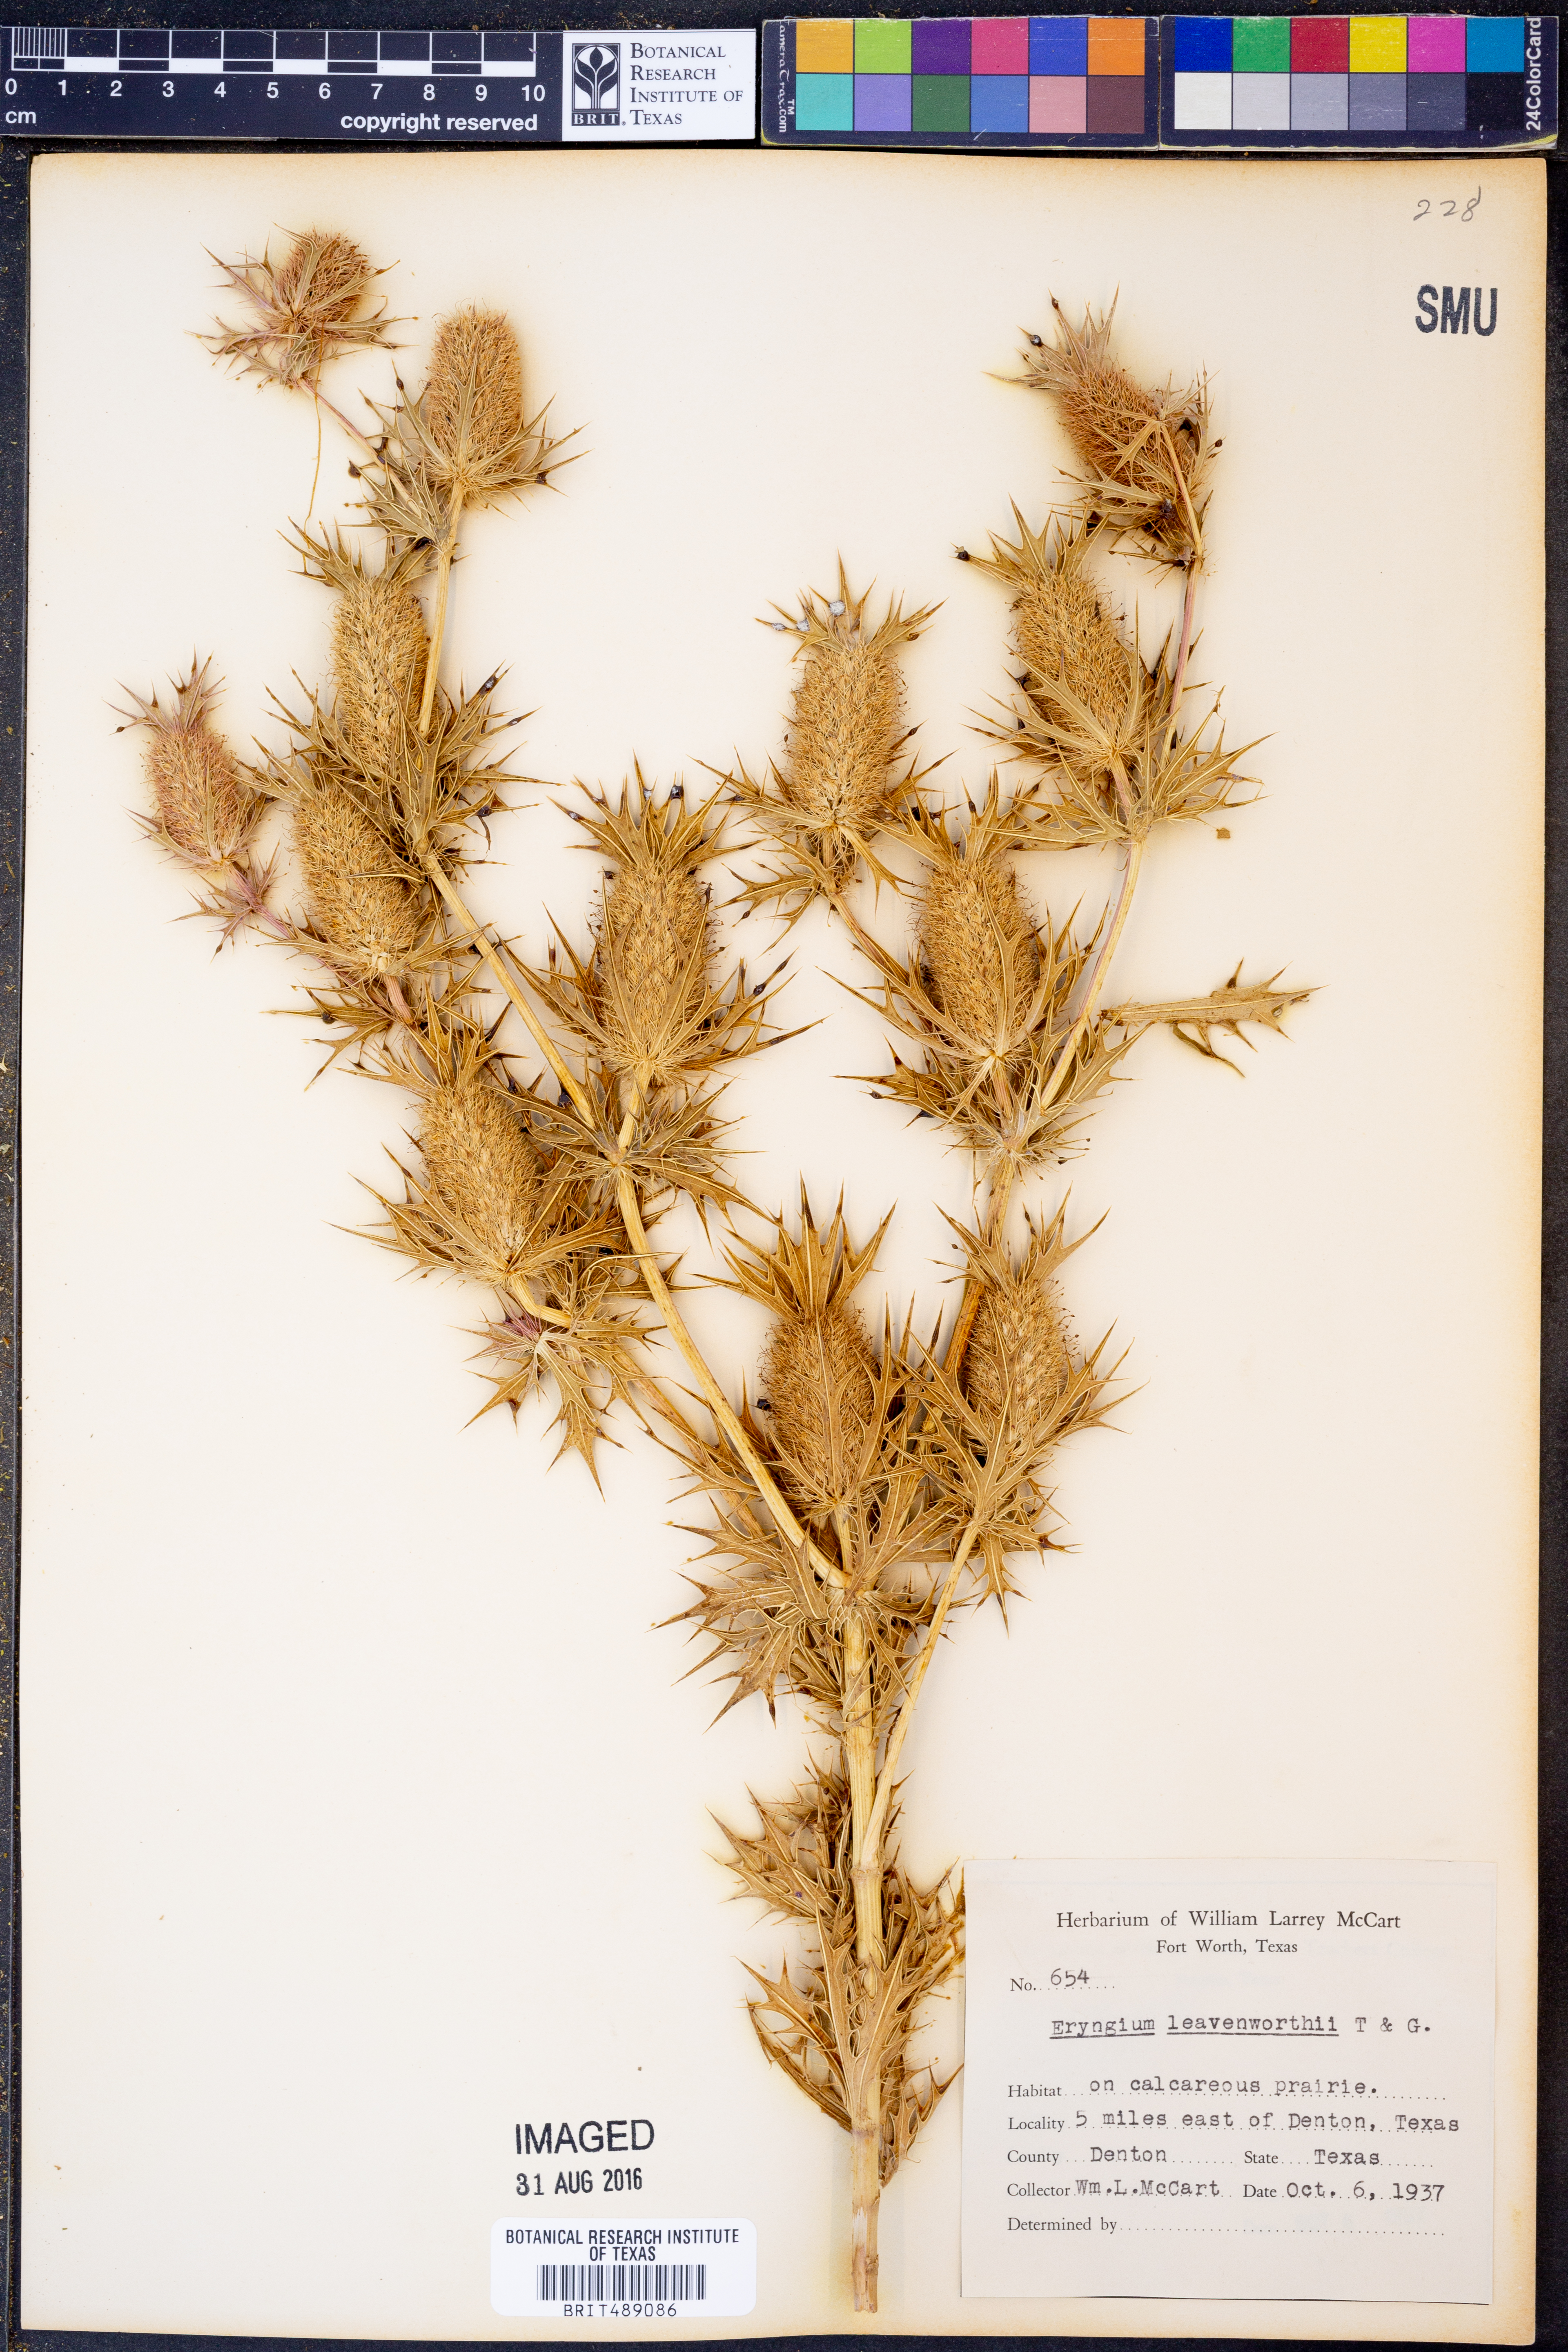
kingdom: Plantae
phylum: Tracheophyta
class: Magnoliopsida
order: Apiales
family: Apiaceae
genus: Eryngium
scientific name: Eryngium leavenworthii
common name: Leavenworth's eryngo
